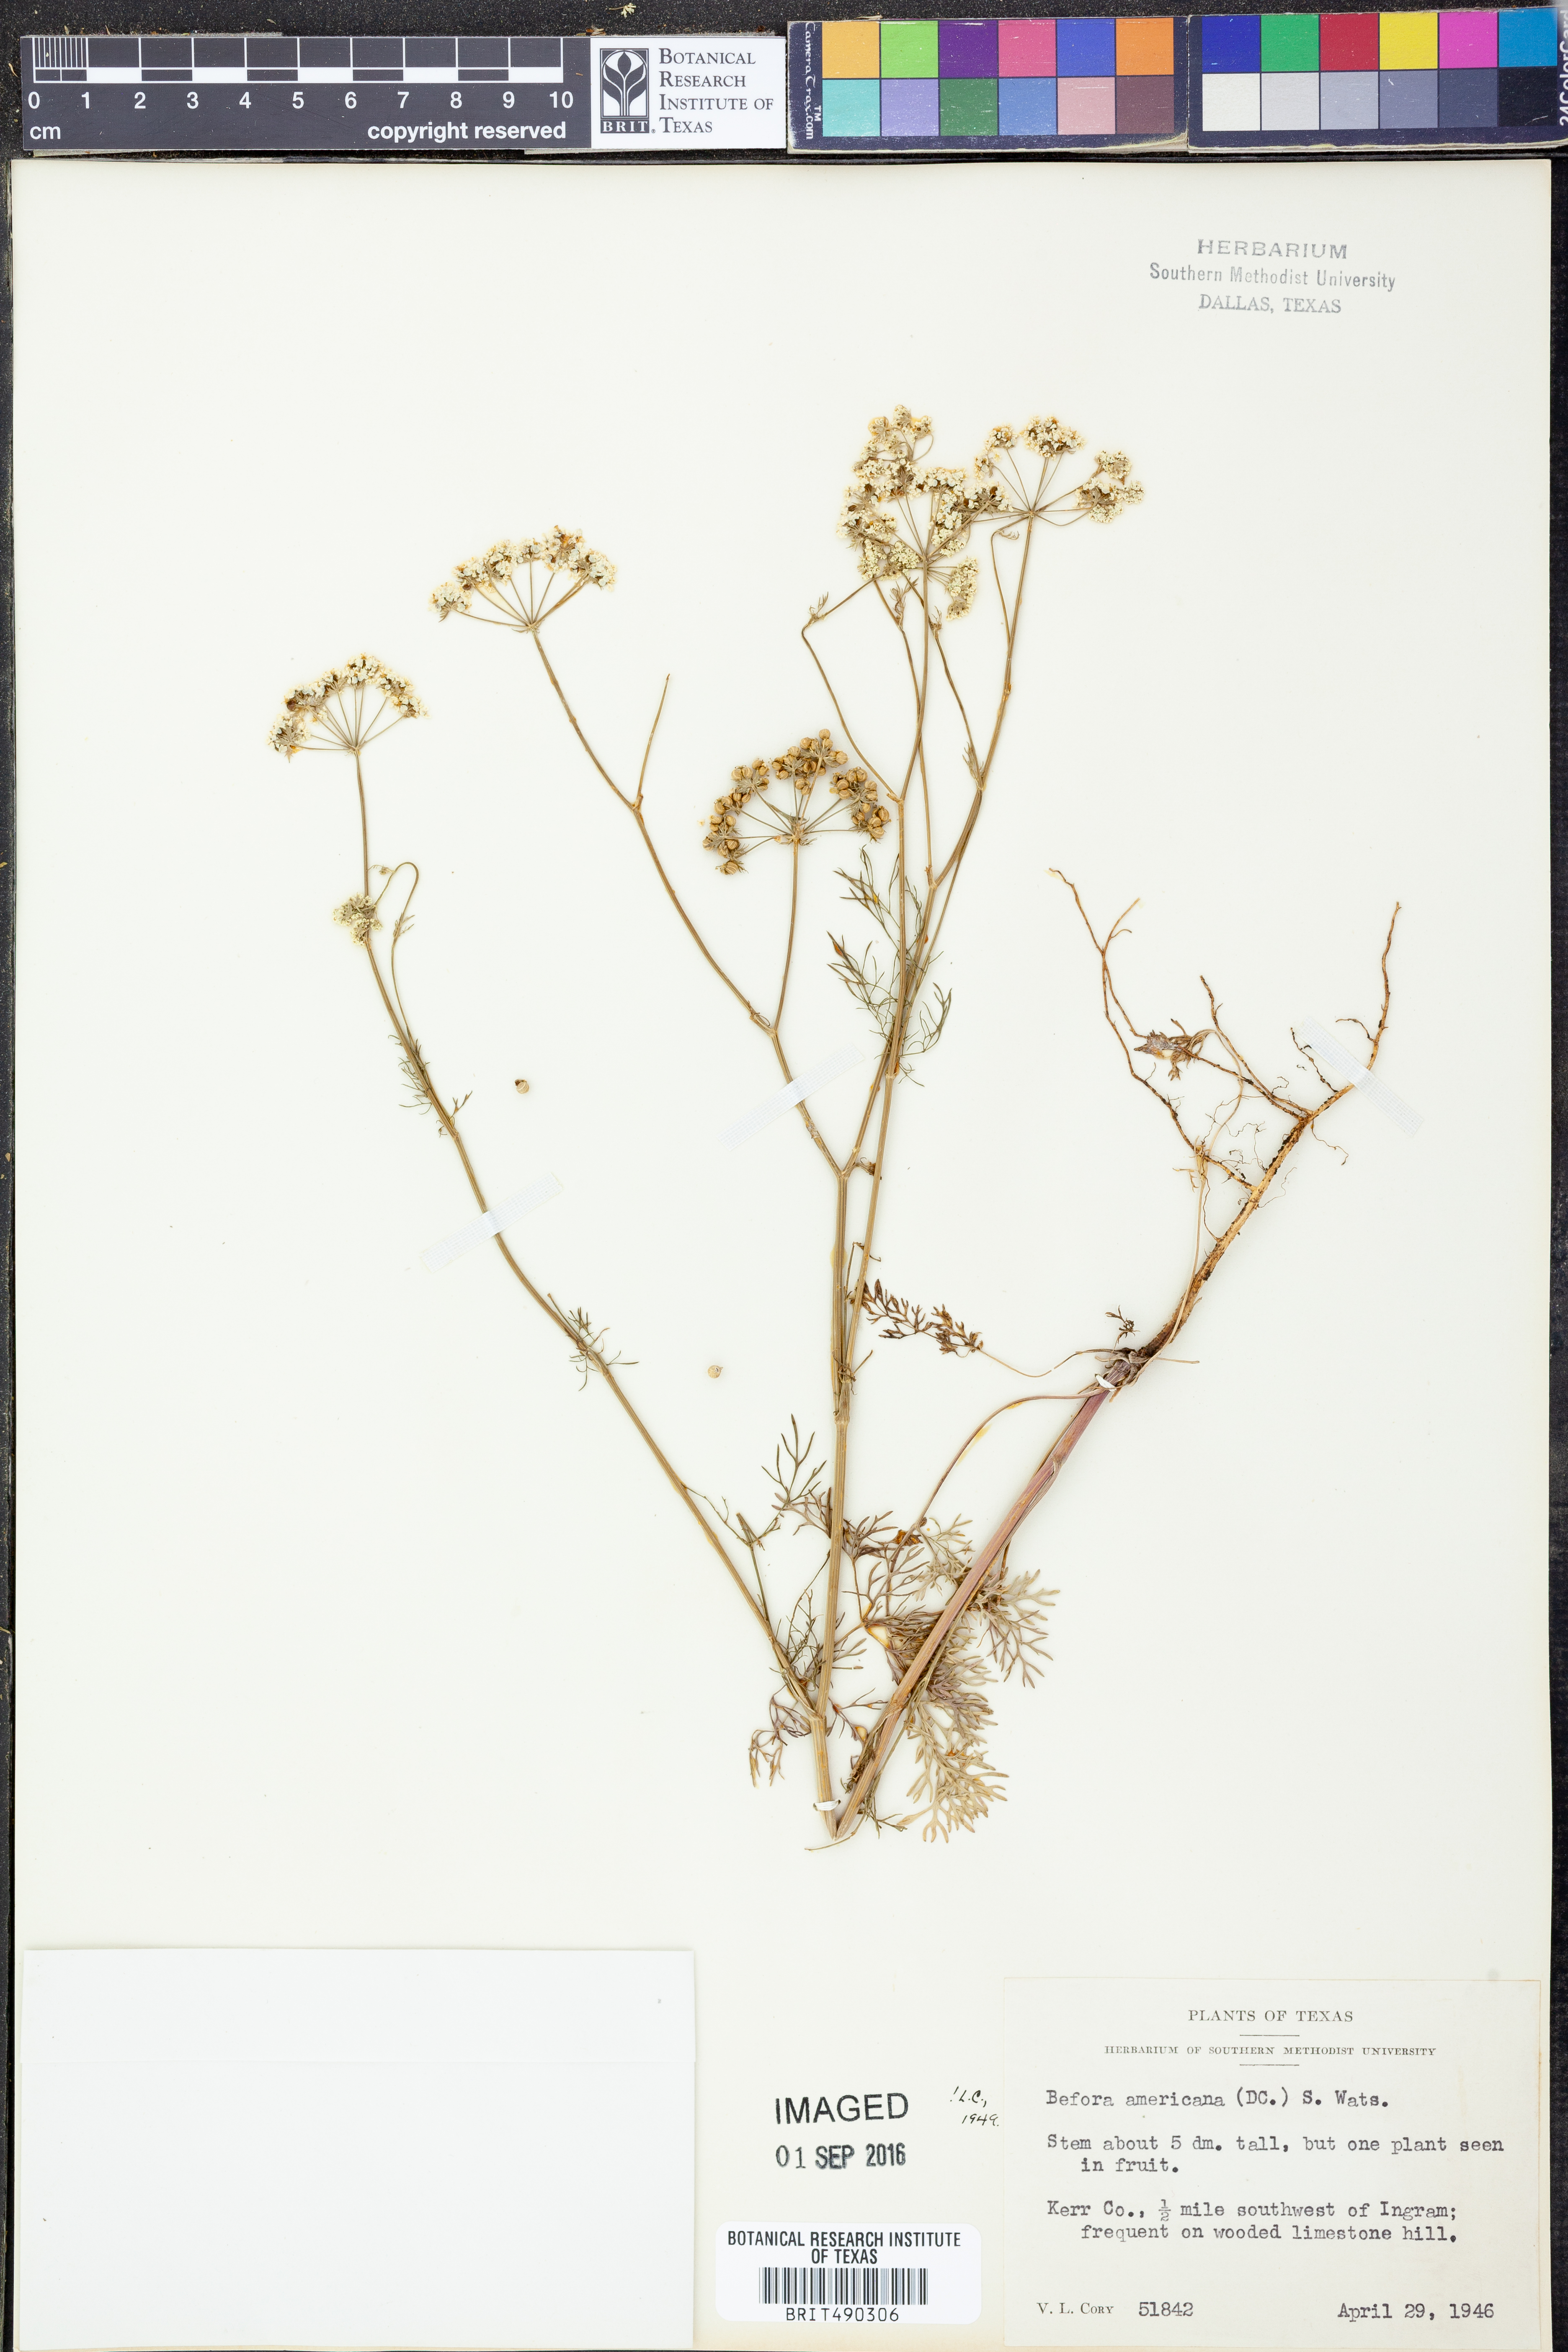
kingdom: Plantae
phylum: Tracheophyta
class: Magnoliopsida
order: Apiales
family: Apiaceae
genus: Atrema
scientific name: Atrema americanum
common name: Prairie-bishop
